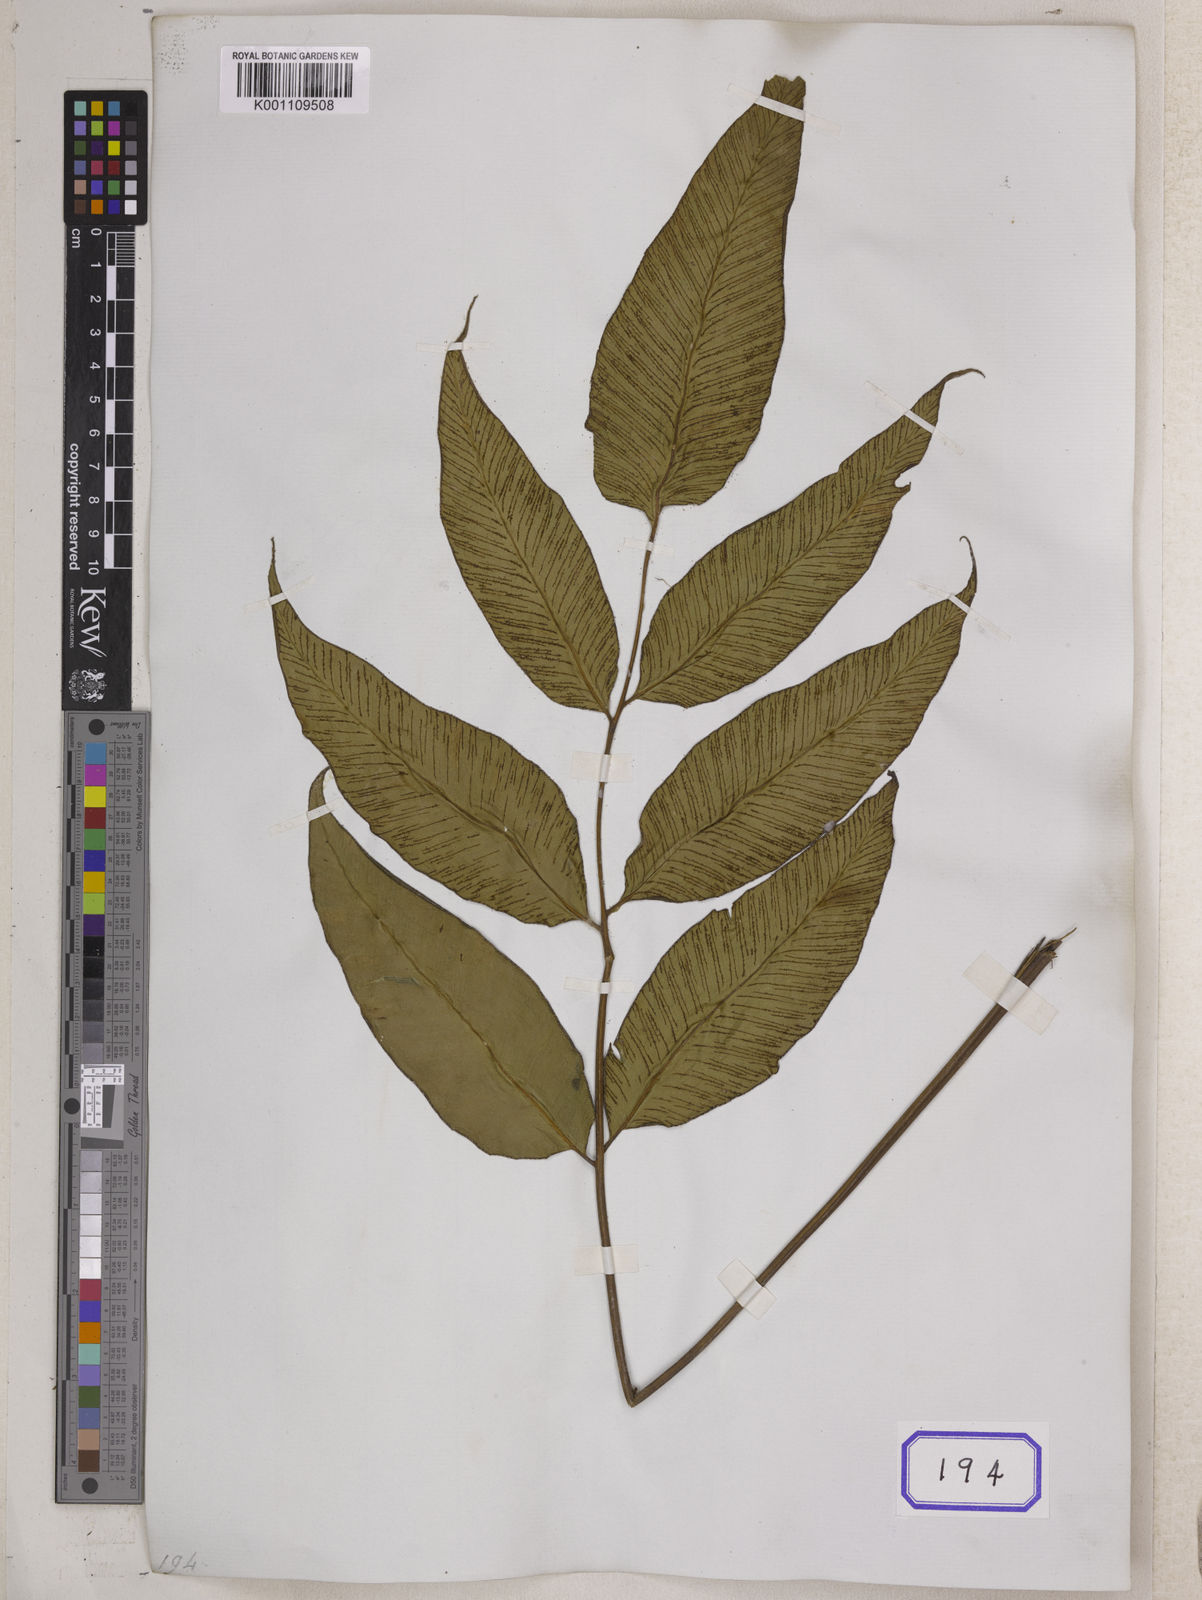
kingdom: Plantae
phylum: Tracheophyta
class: Polypodiopsida
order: Polypodiales
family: Athyriaceae
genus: Diplazium
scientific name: Diplazium lineolatum
